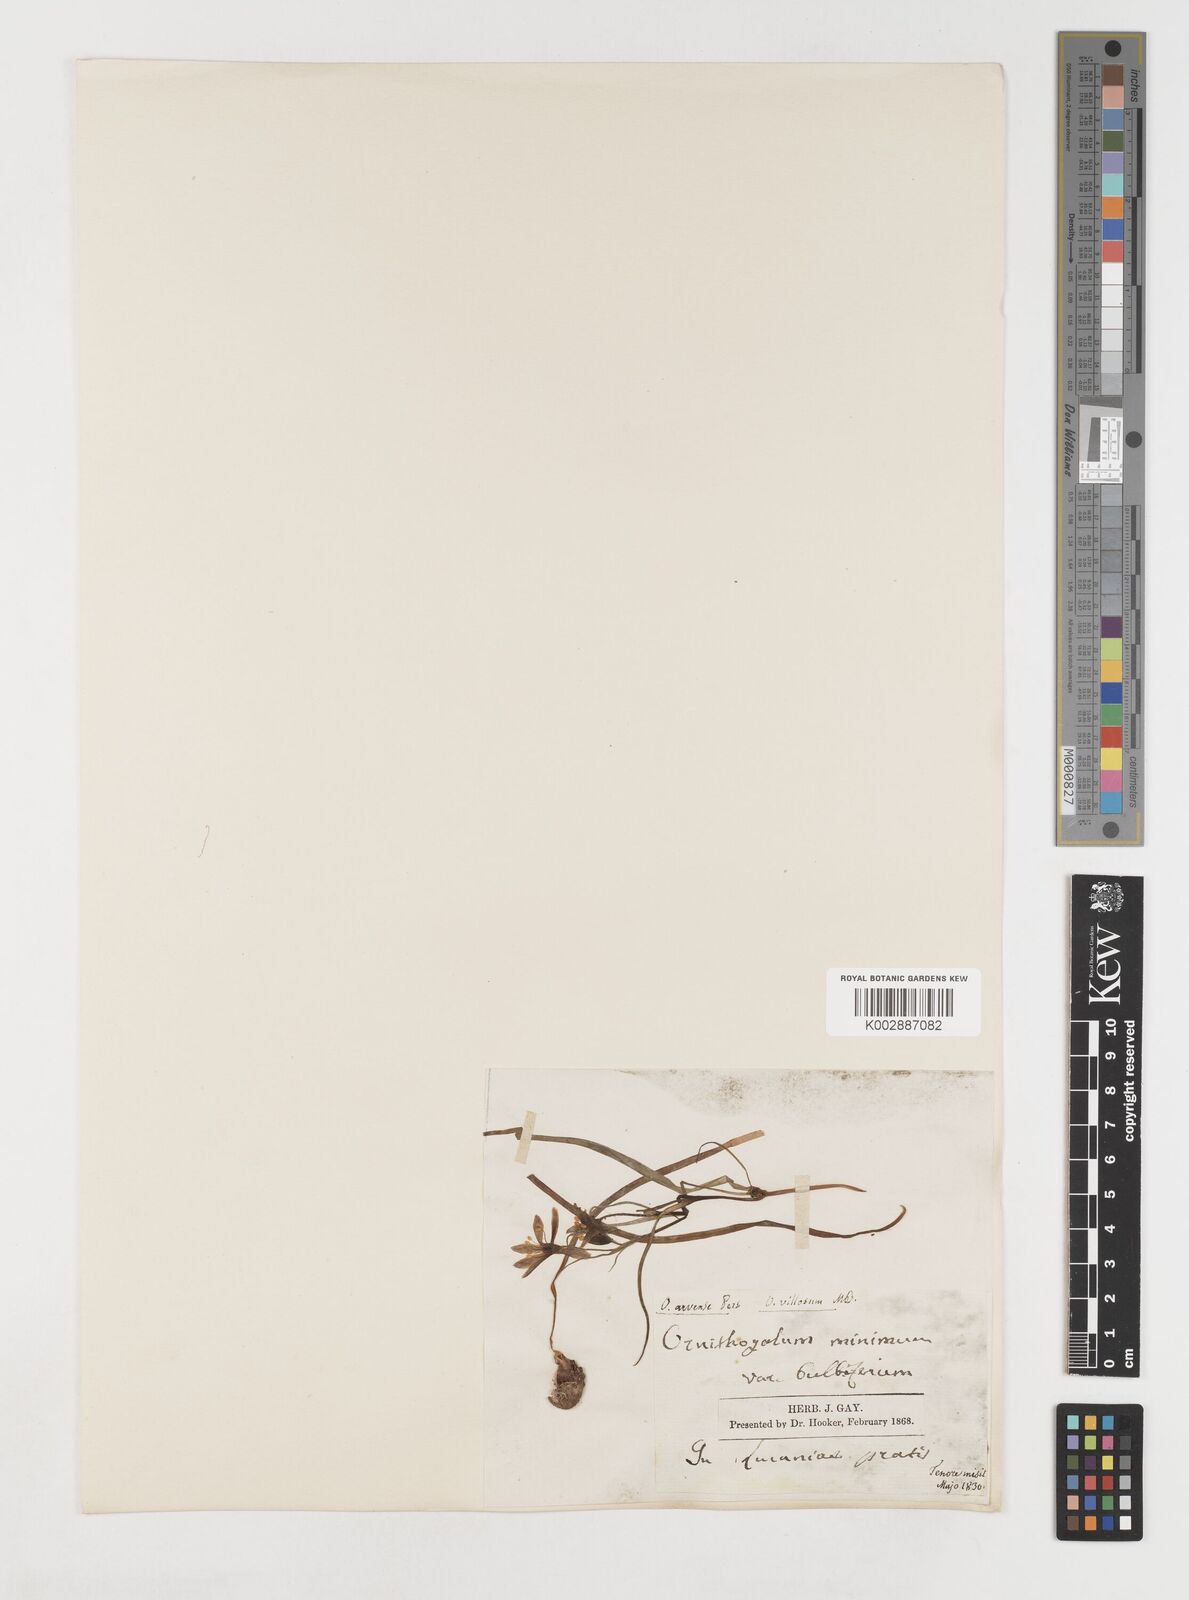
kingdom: Plantae
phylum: Tracheophyta
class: Liliopsida
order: Liliales
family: Liliaceae
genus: Gagea
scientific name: Gagea minima
